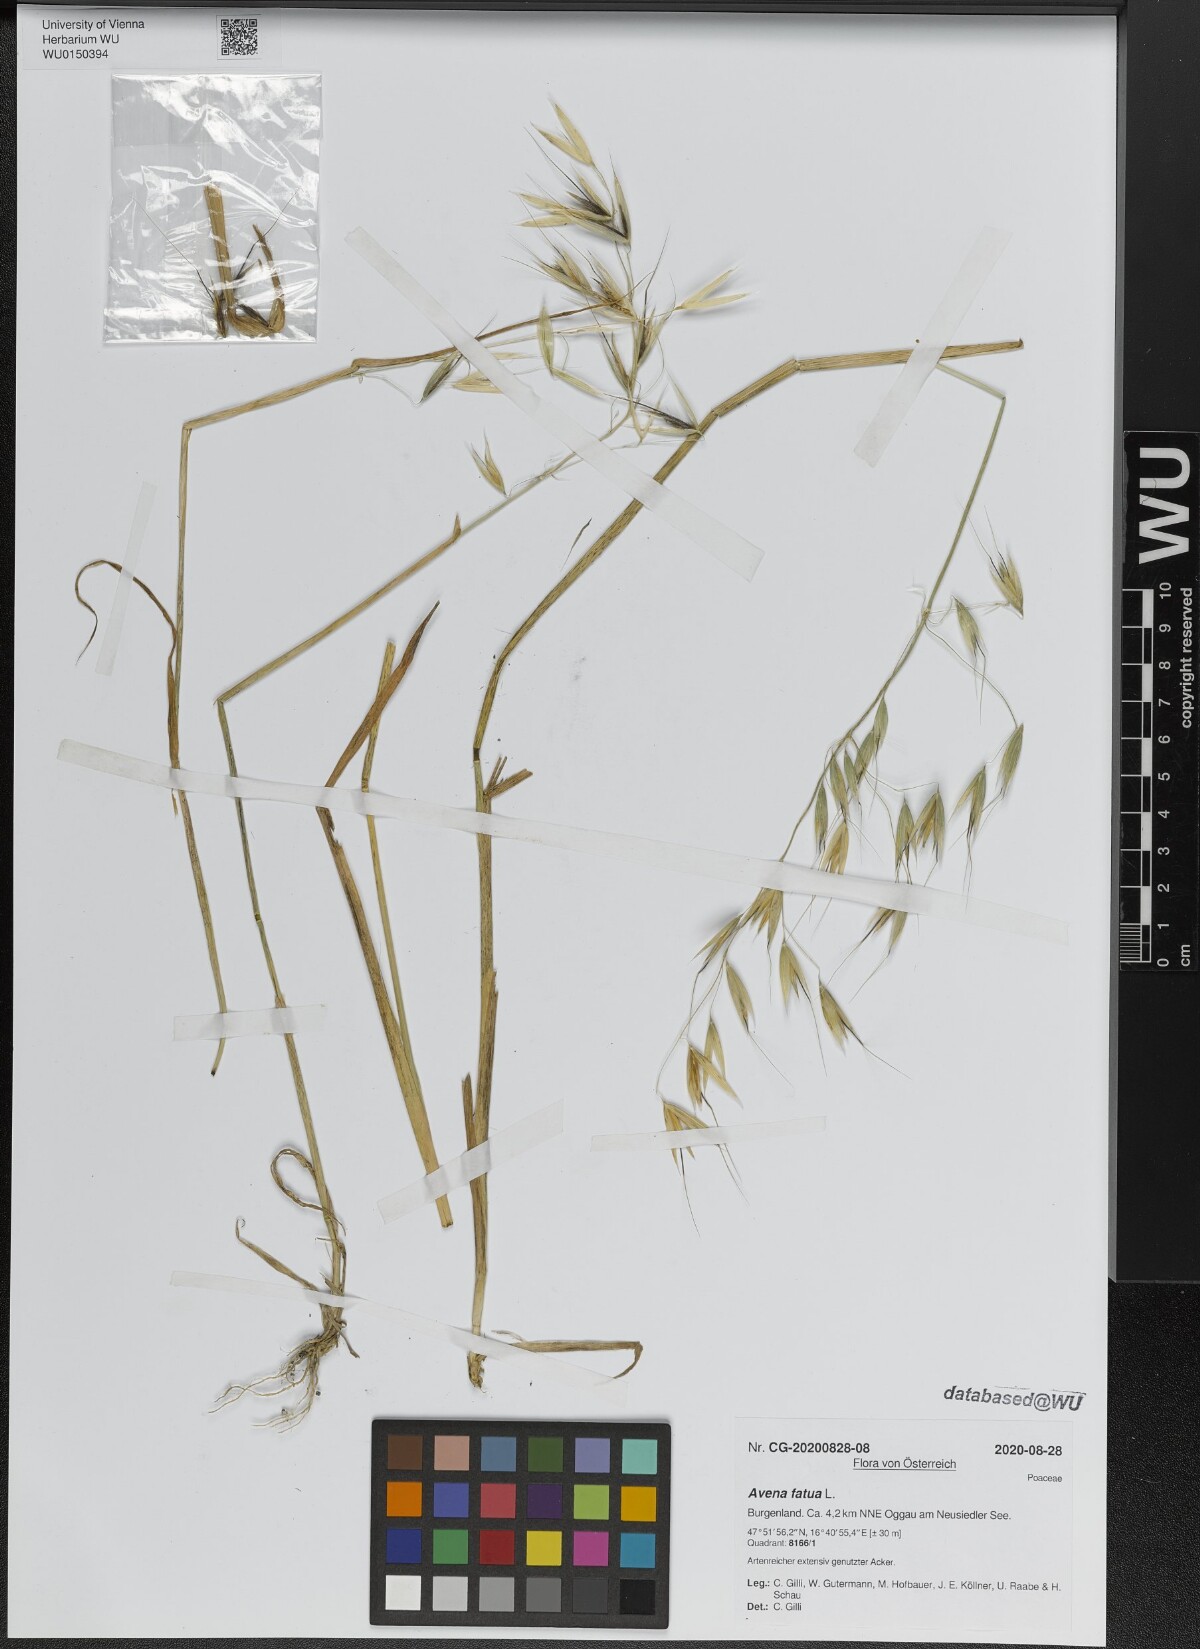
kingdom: Plantae
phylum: Tracheophyta
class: Liliopsida
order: Poales
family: Poaceae
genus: Avena
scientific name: Avena fatua
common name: Wild oat
